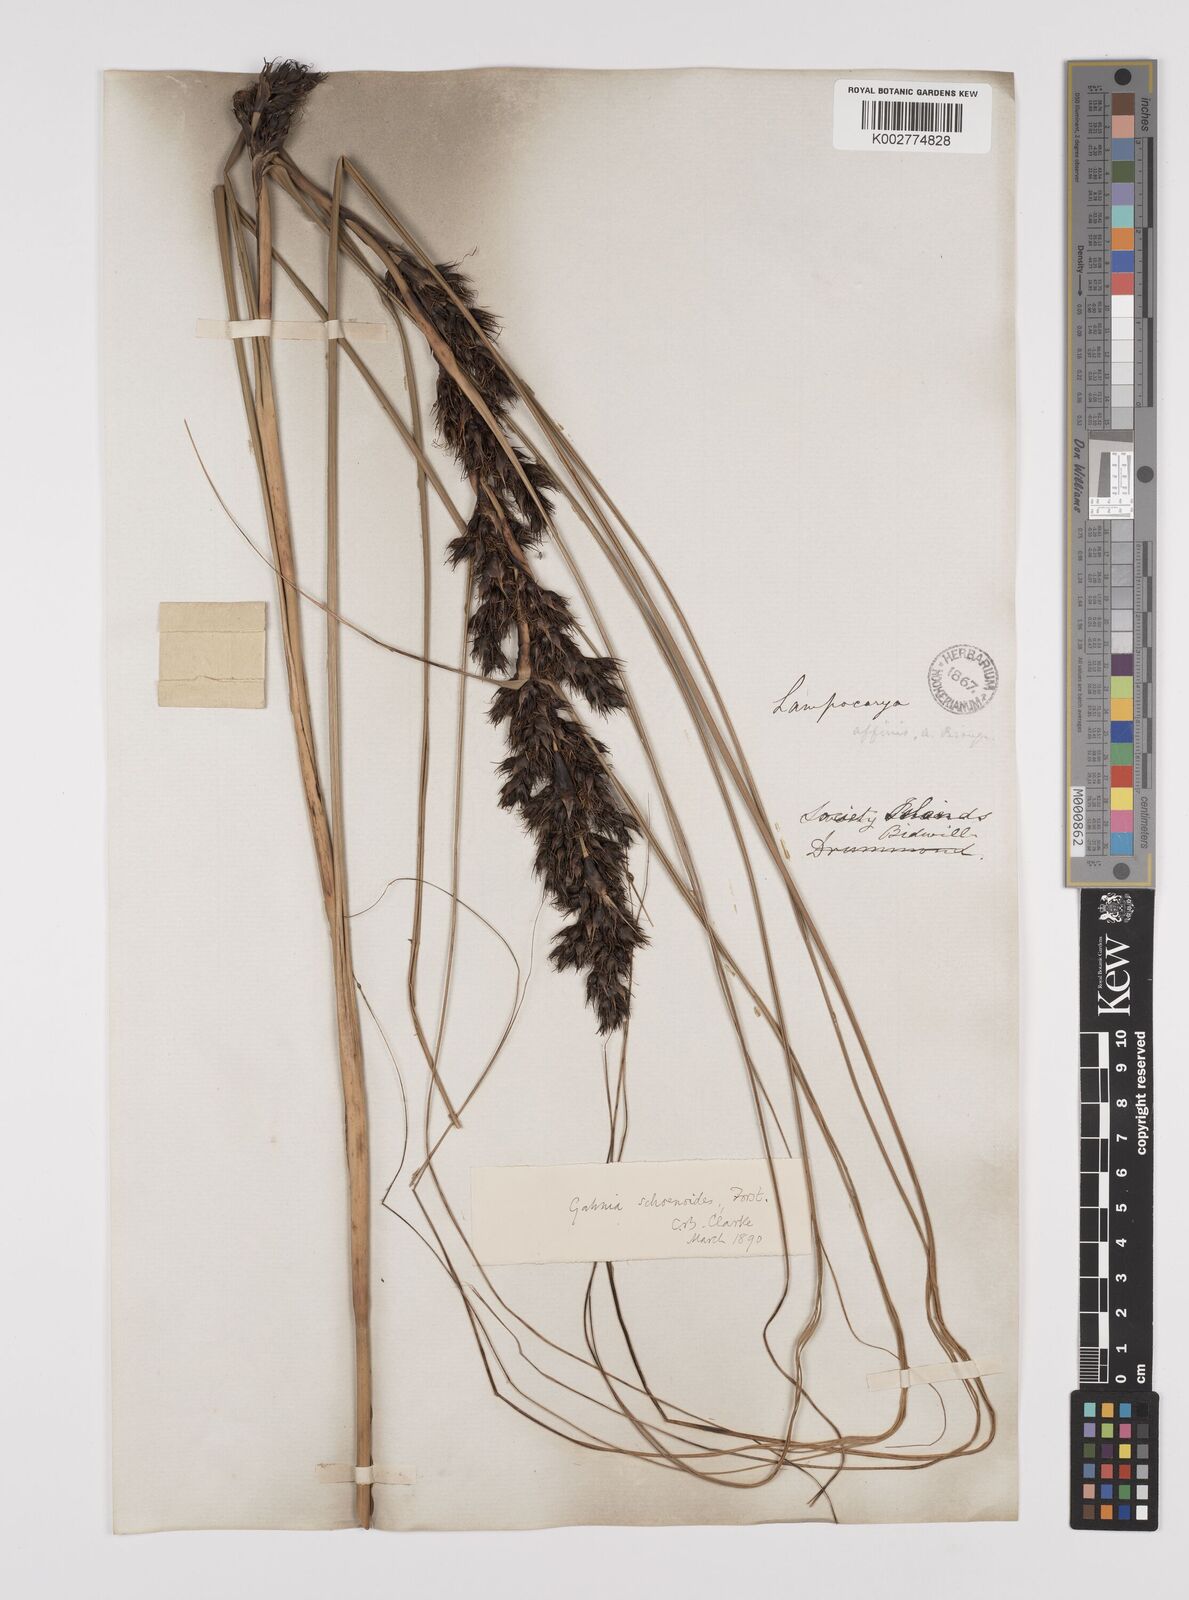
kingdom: Plantae
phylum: Tracheophyta
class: Liliopsida
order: Poales
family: Cyperaceae
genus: Gahnia
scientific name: Gahnia schoenoides
